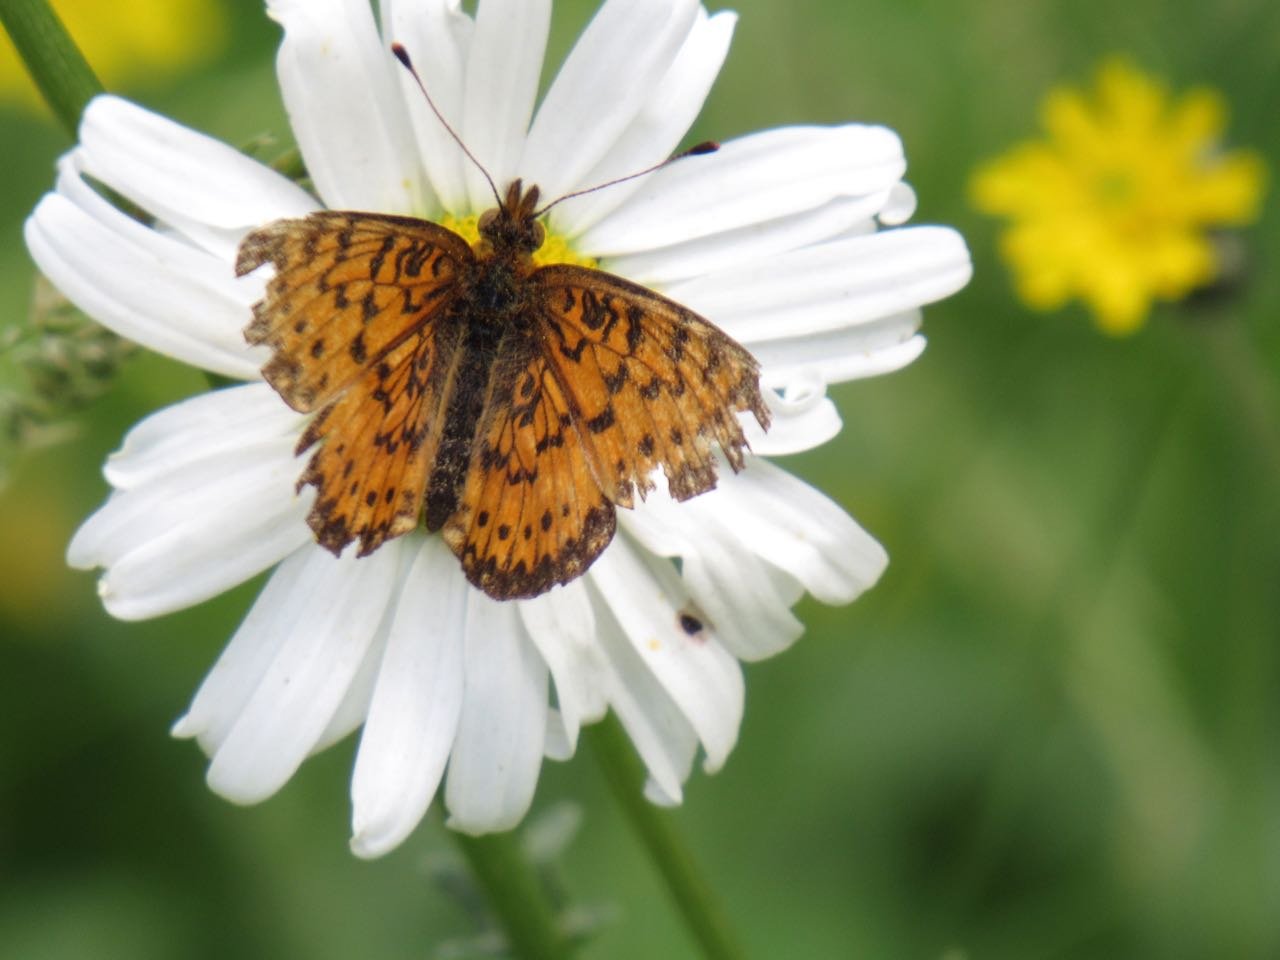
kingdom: Animalia
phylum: Arthropoda
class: Insecta
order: Lepidoptera
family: Nymphalidae
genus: Boloria
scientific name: Boloria selene
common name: Silver-bordered Fritillary
